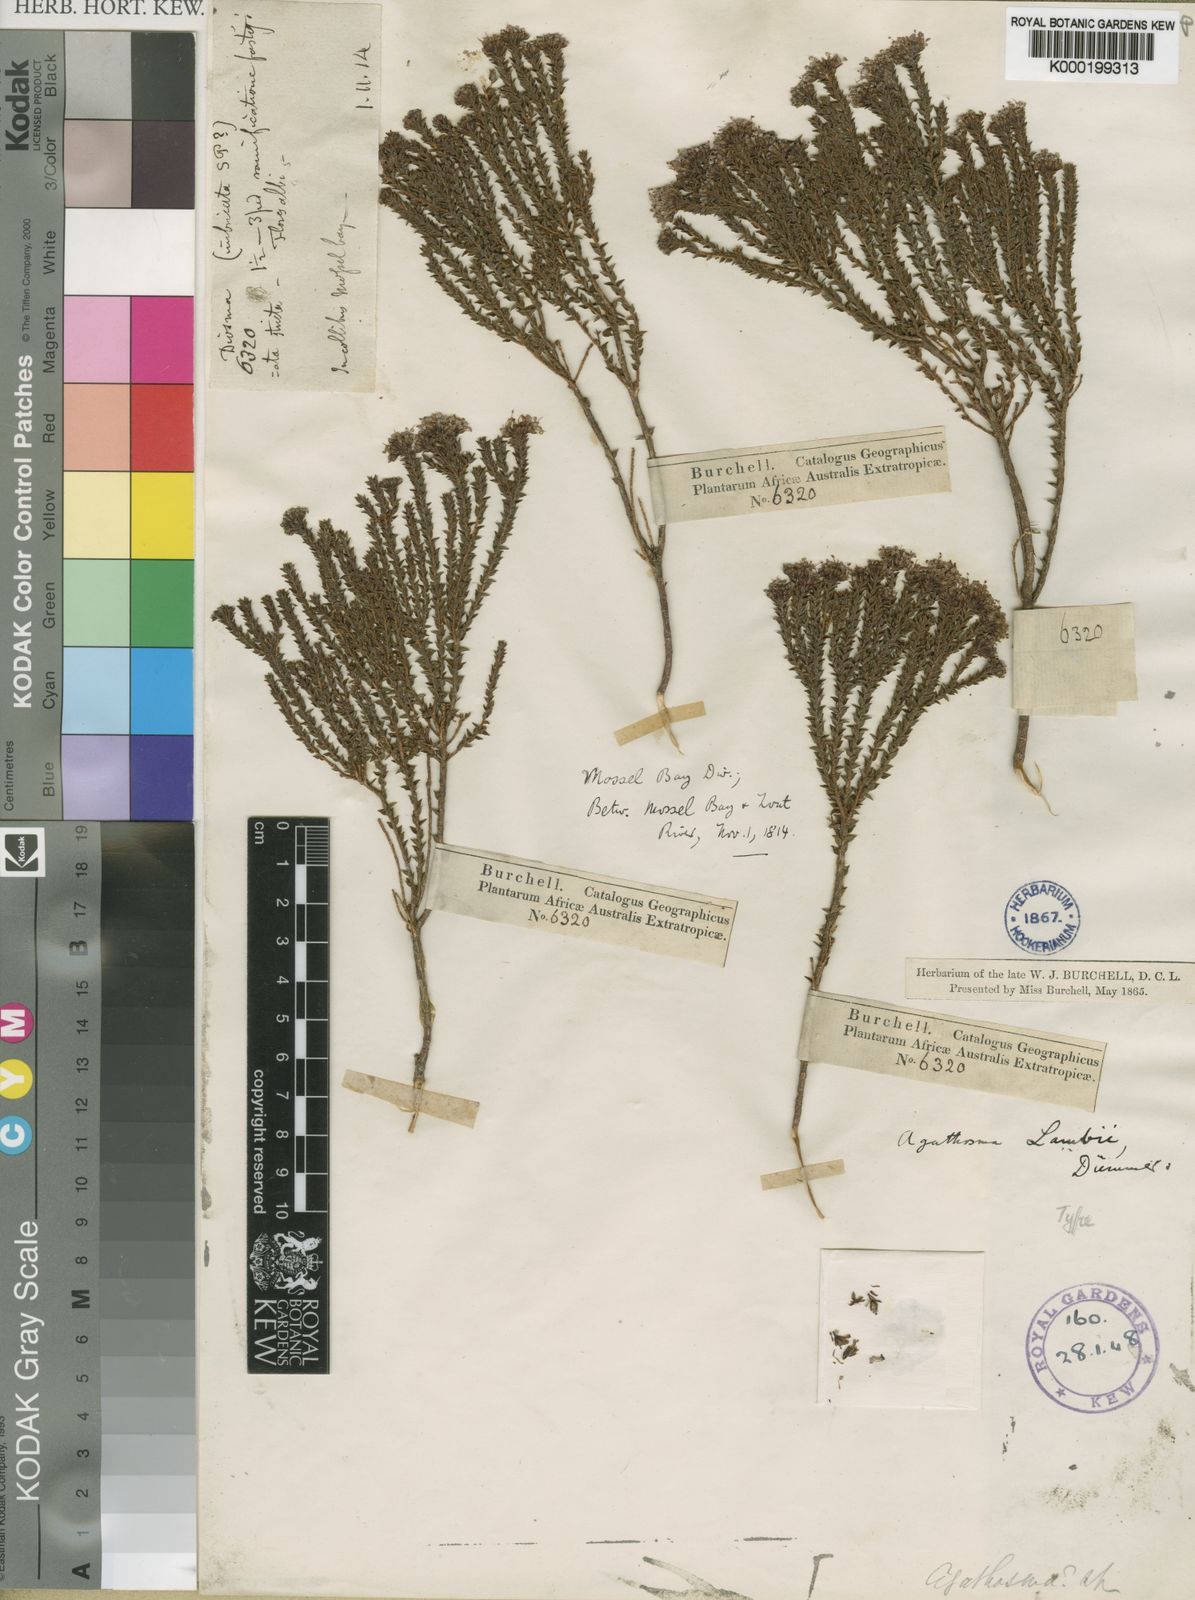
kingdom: Plantae
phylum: Tracheophyta
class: Magnoliopsida
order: Sapindales
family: Rutaceae
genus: Agathosma
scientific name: Agathosma imbricata
